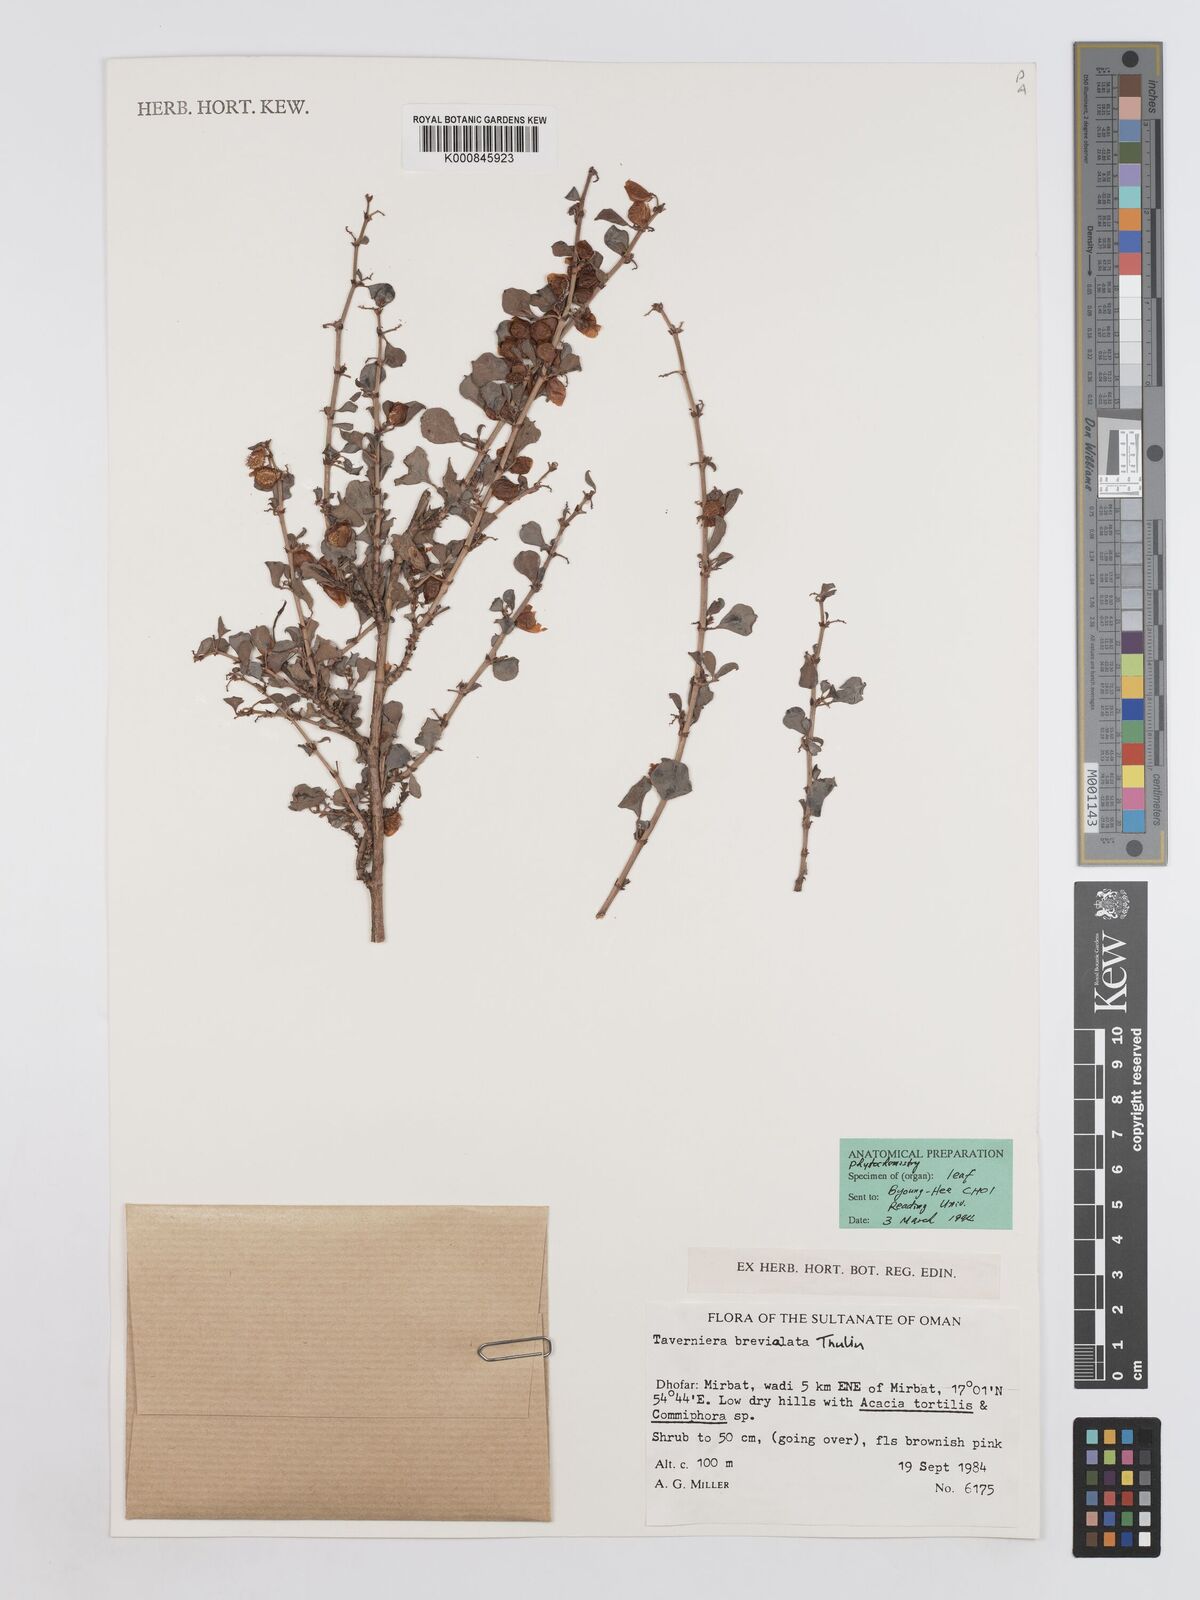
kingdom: Plantae
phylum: Tracheophyta
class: Magnoliopsida
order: Fabales
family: Fabaceae
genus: Taverniera
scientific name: Taverniera brevialata
